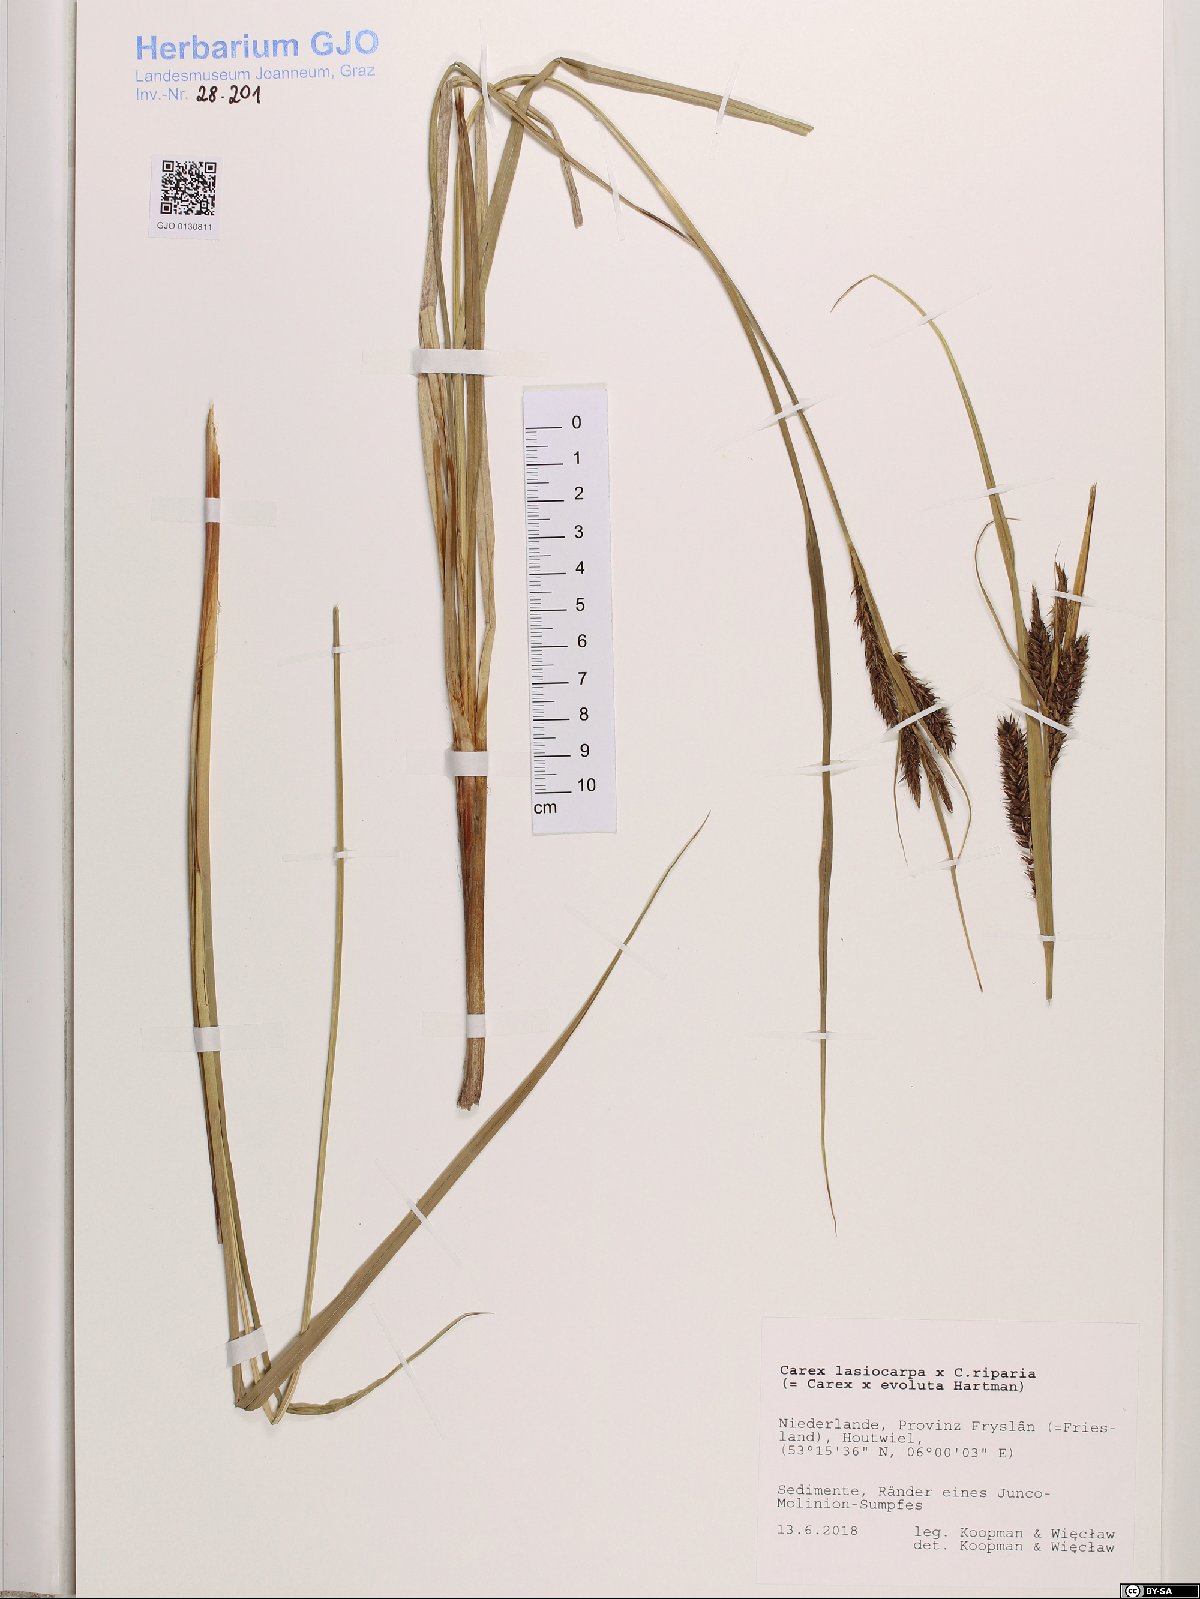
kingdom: Plantae
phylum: Tracheophyta
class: Liliopsida
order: Poales
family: Cyperaceae
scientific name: Cyperaceae
